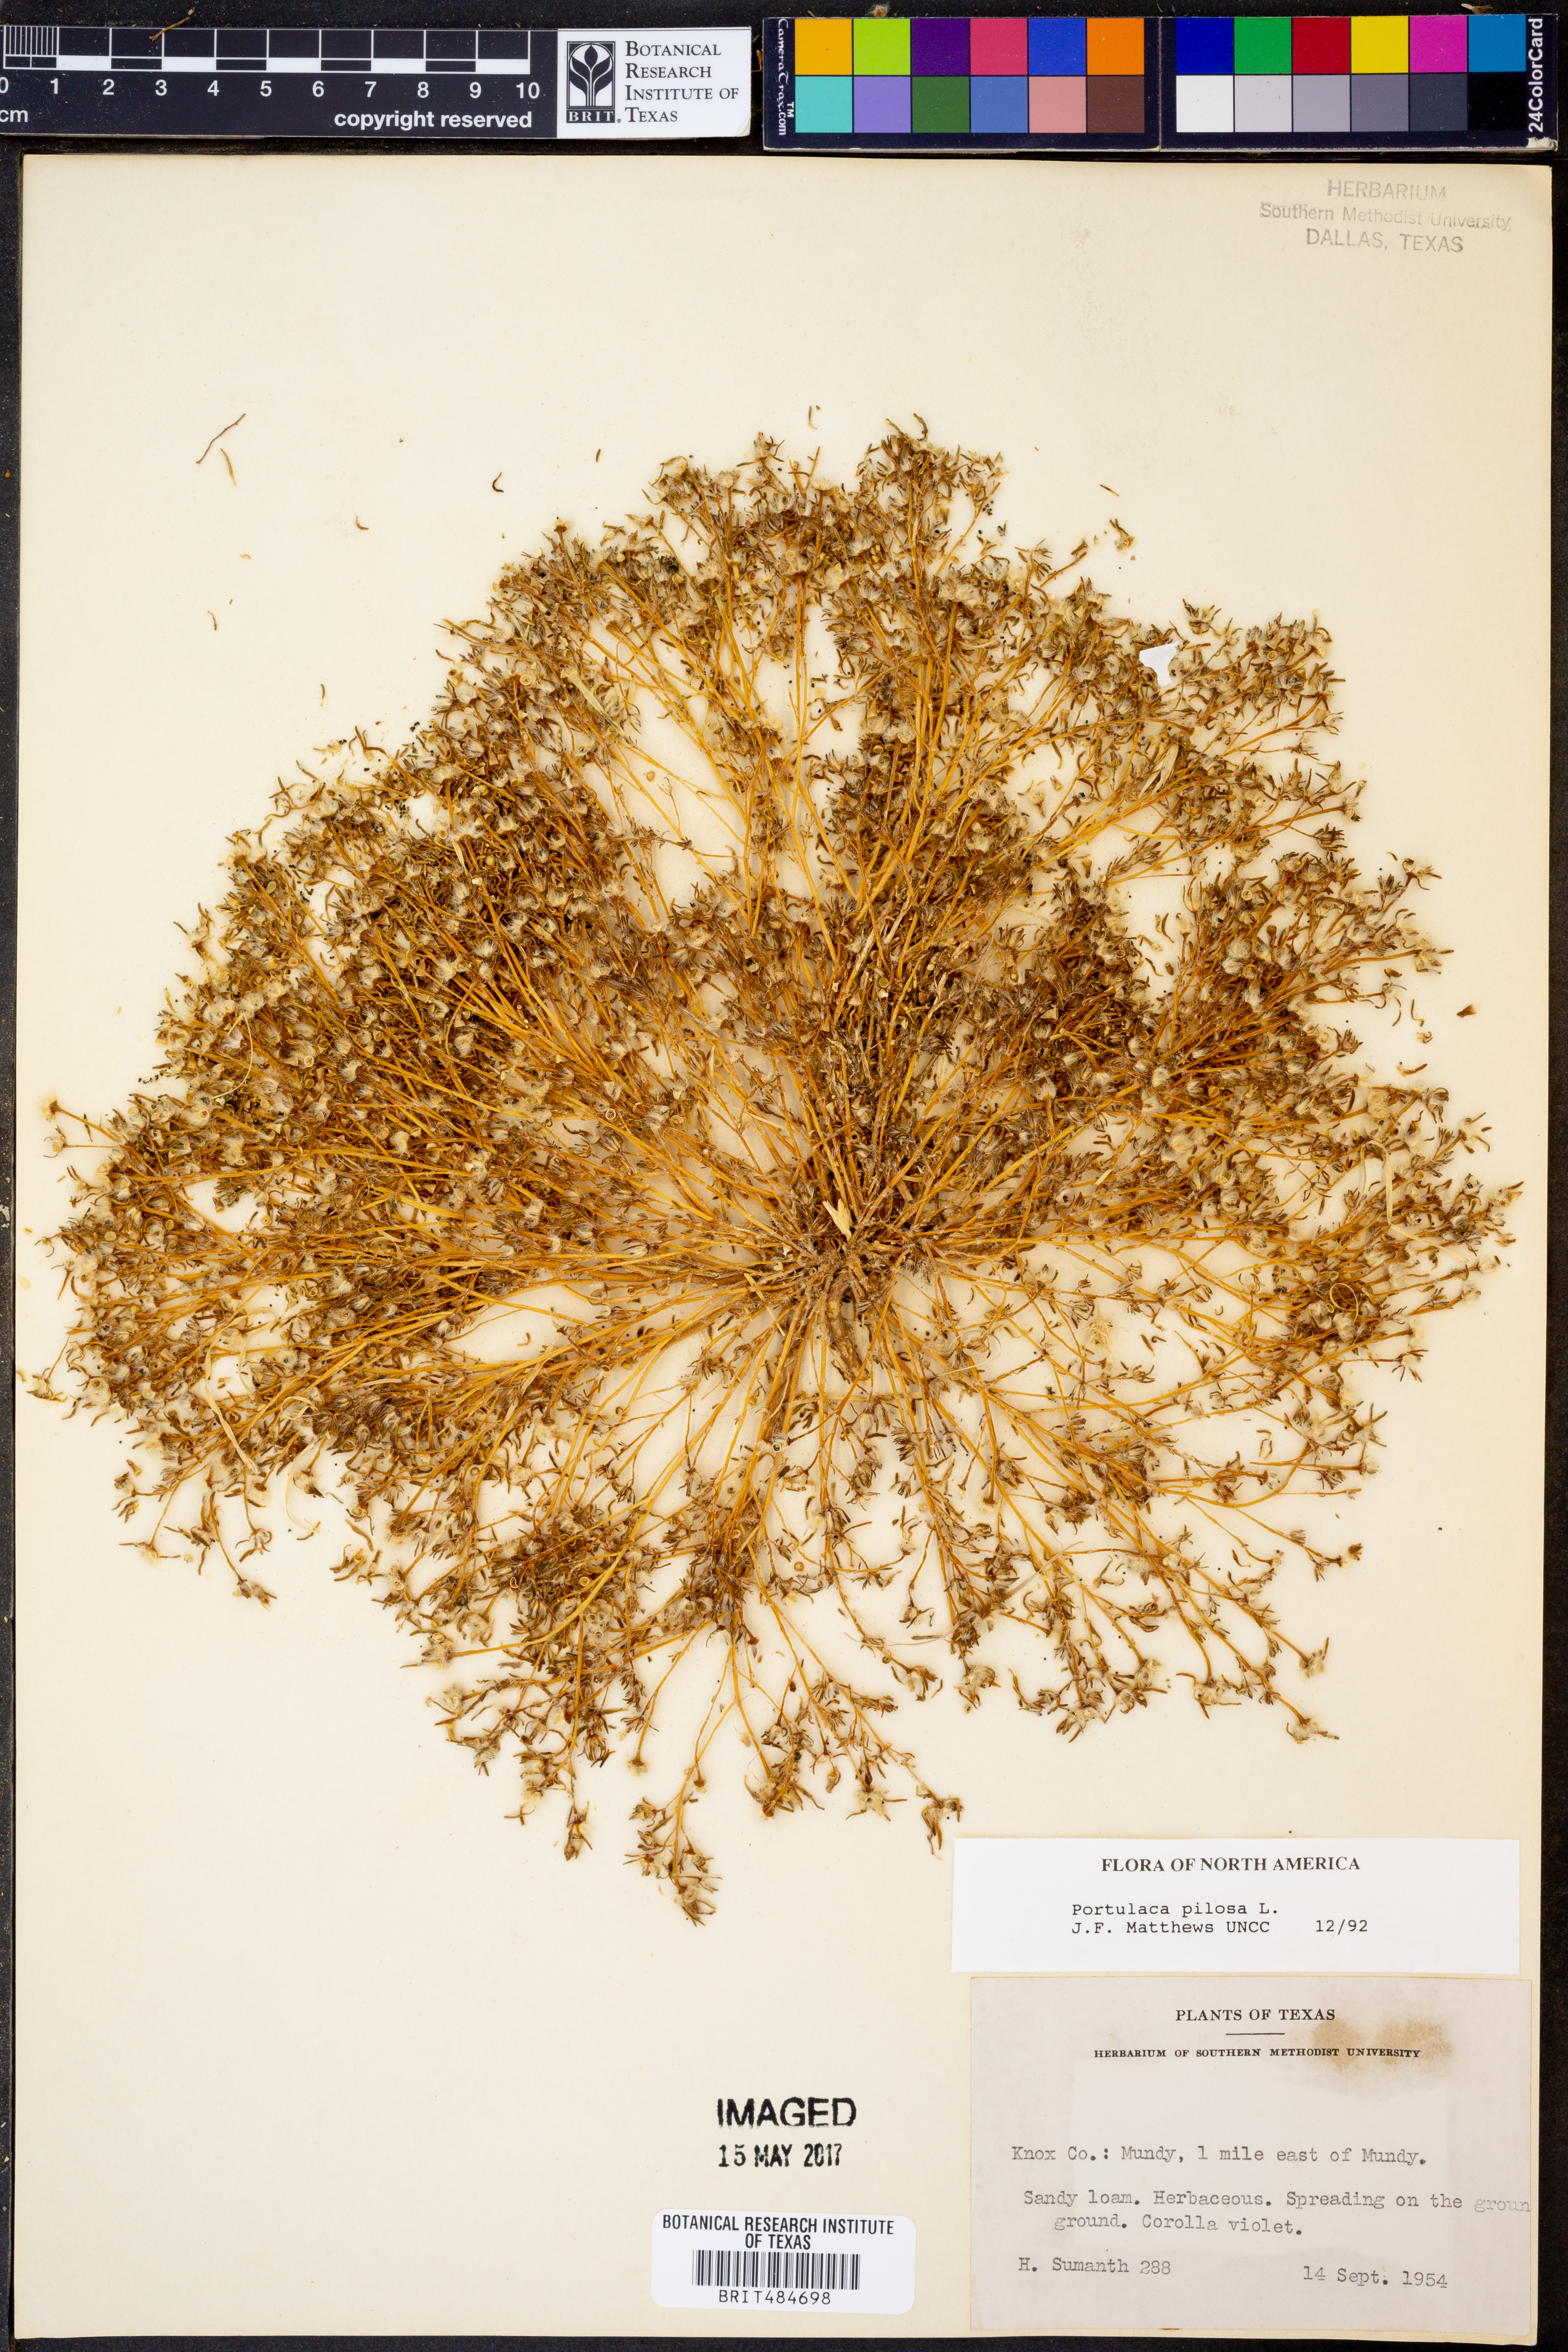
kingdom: Plantae
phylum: Tracheophyta
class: Magnoliopsida
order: Caryophyllales
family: Portulacaceae
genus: Portulaca
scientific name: Portulaca pilosa
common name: Kiss me quick
